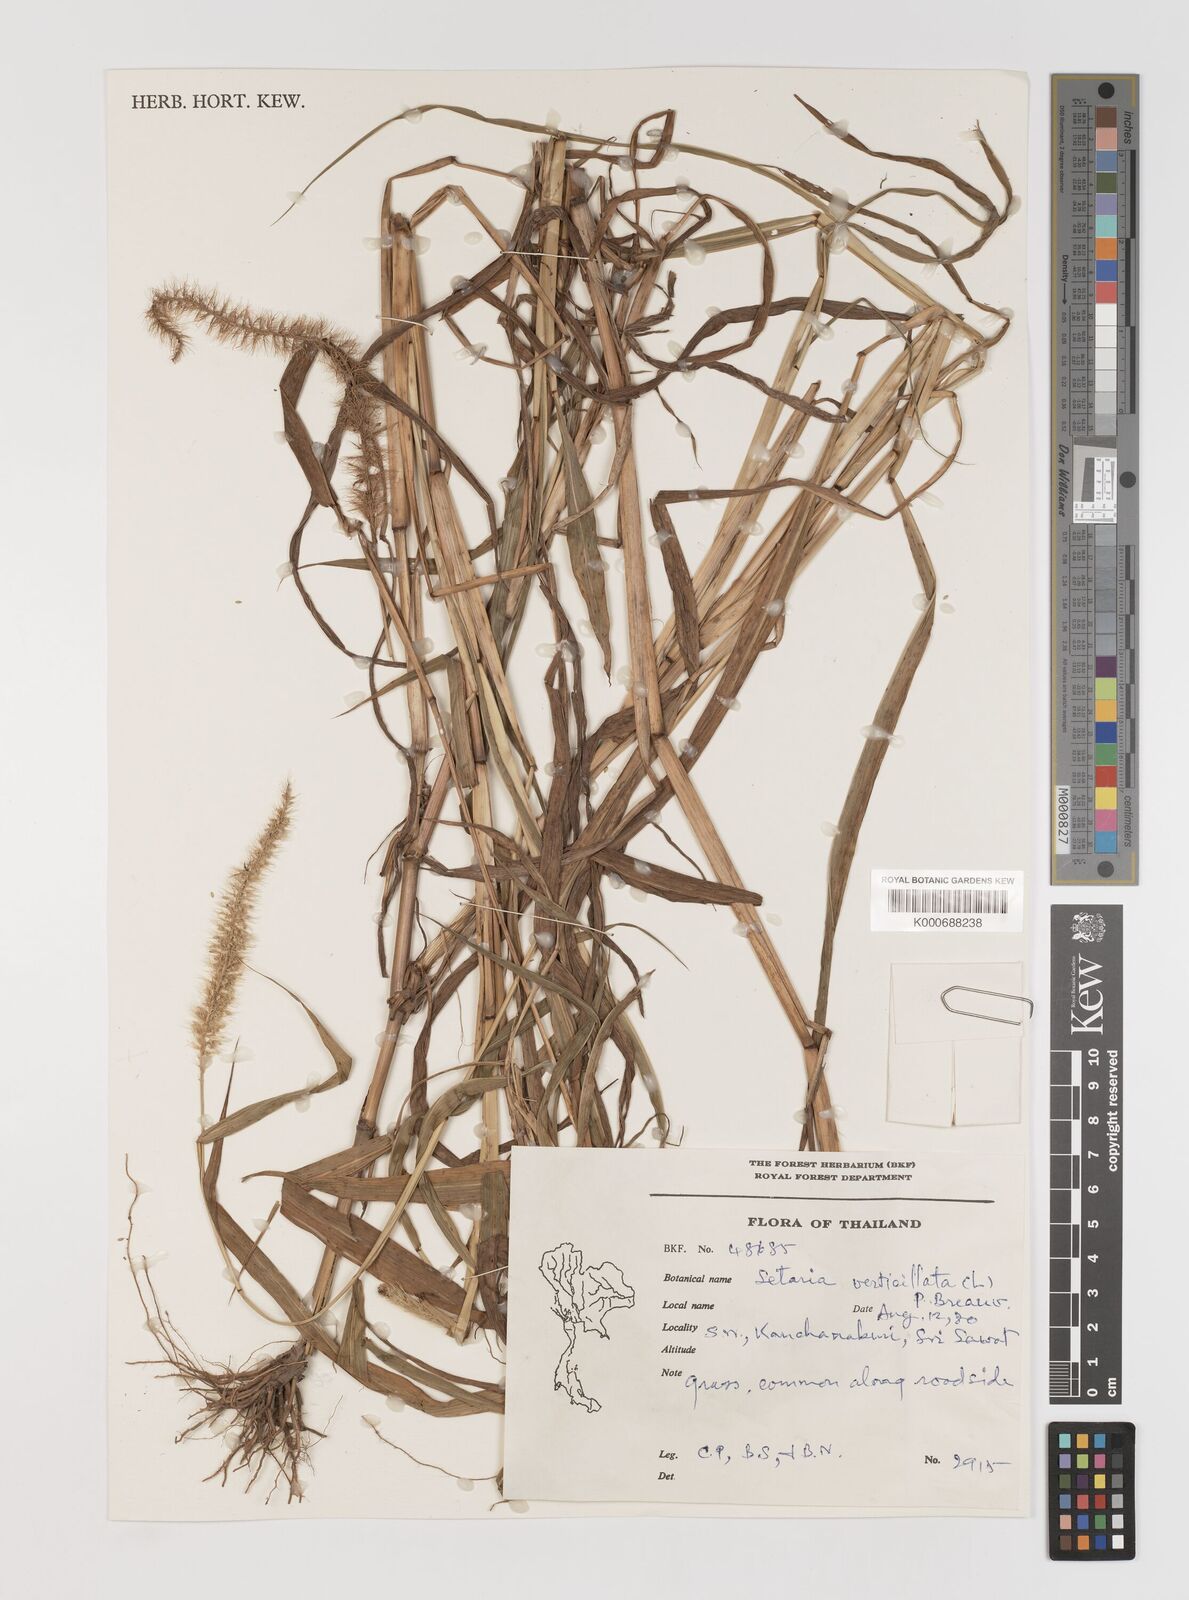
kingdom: Plantae
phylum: Tracheophyta
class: Liliopsida
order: Poales
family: Poaceae
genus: Setaria
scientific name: Setaria verticillata
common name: Hooked bristlegrass
